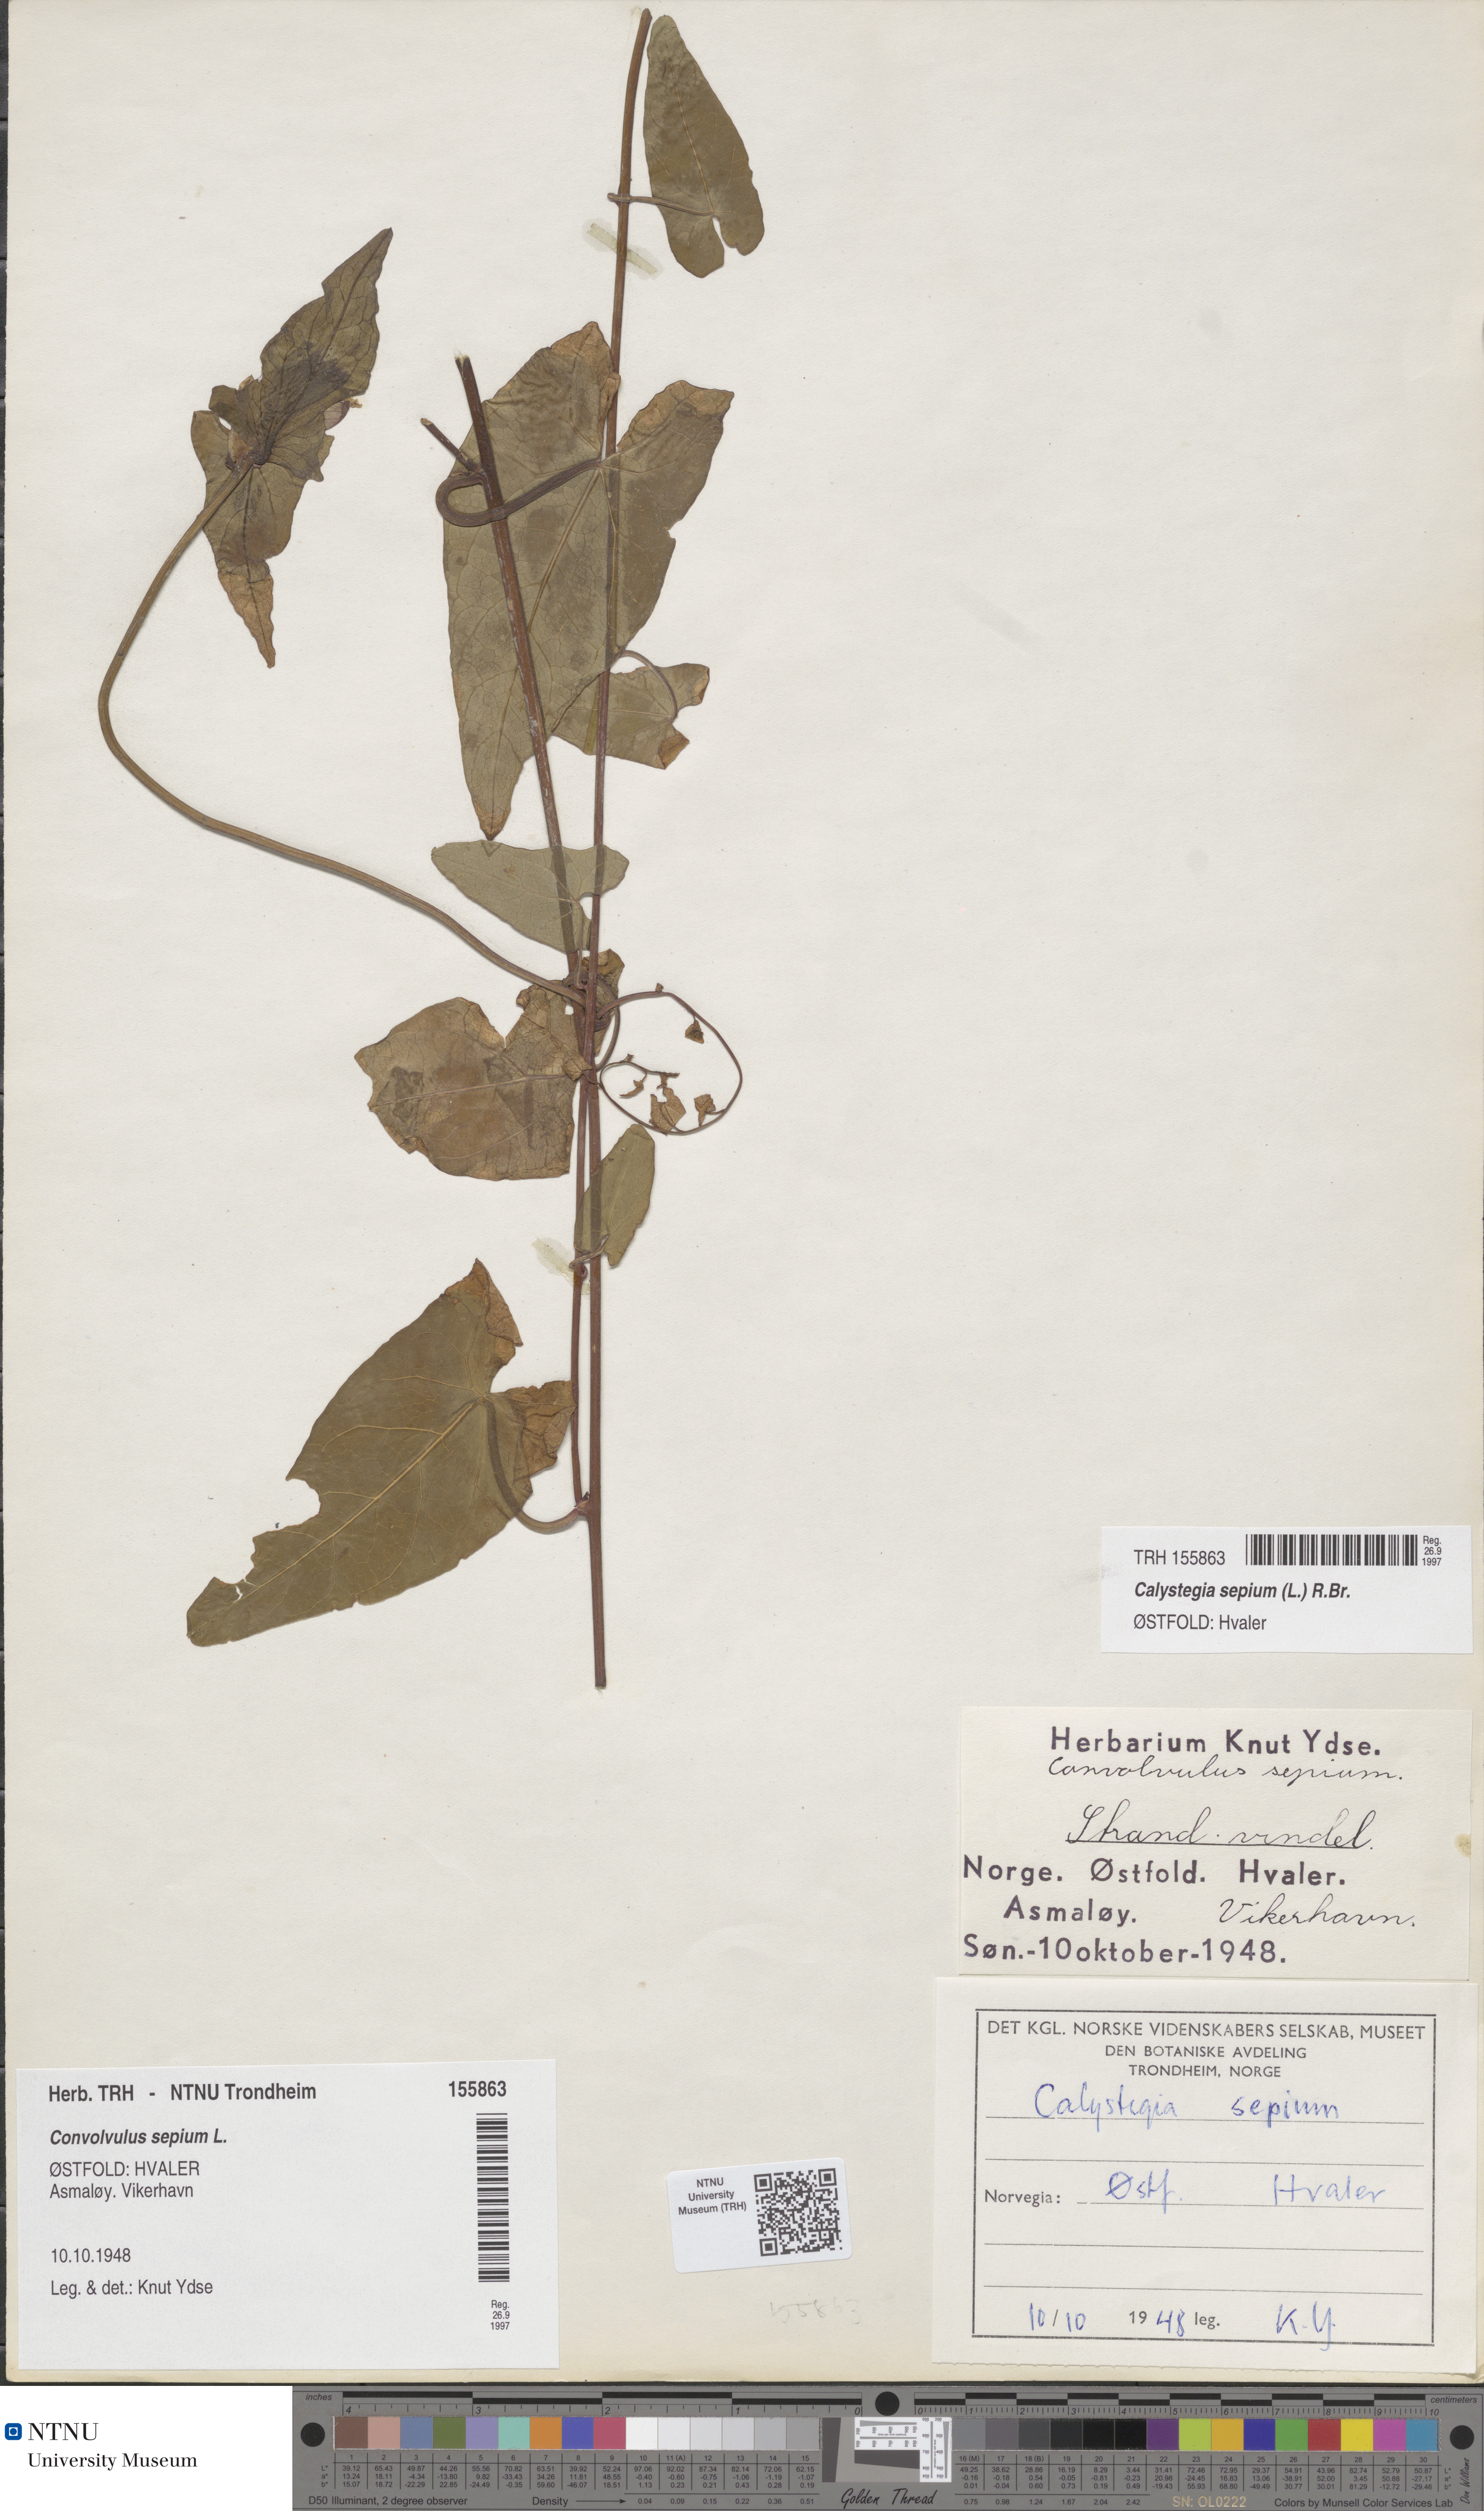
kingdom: Plantae
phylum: Tracheophyta
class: Magnoliopsida
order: Solanales
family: Convolvulaceae
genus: Calystegia
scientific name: Calystegia sepium
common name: Hedge bindweed
